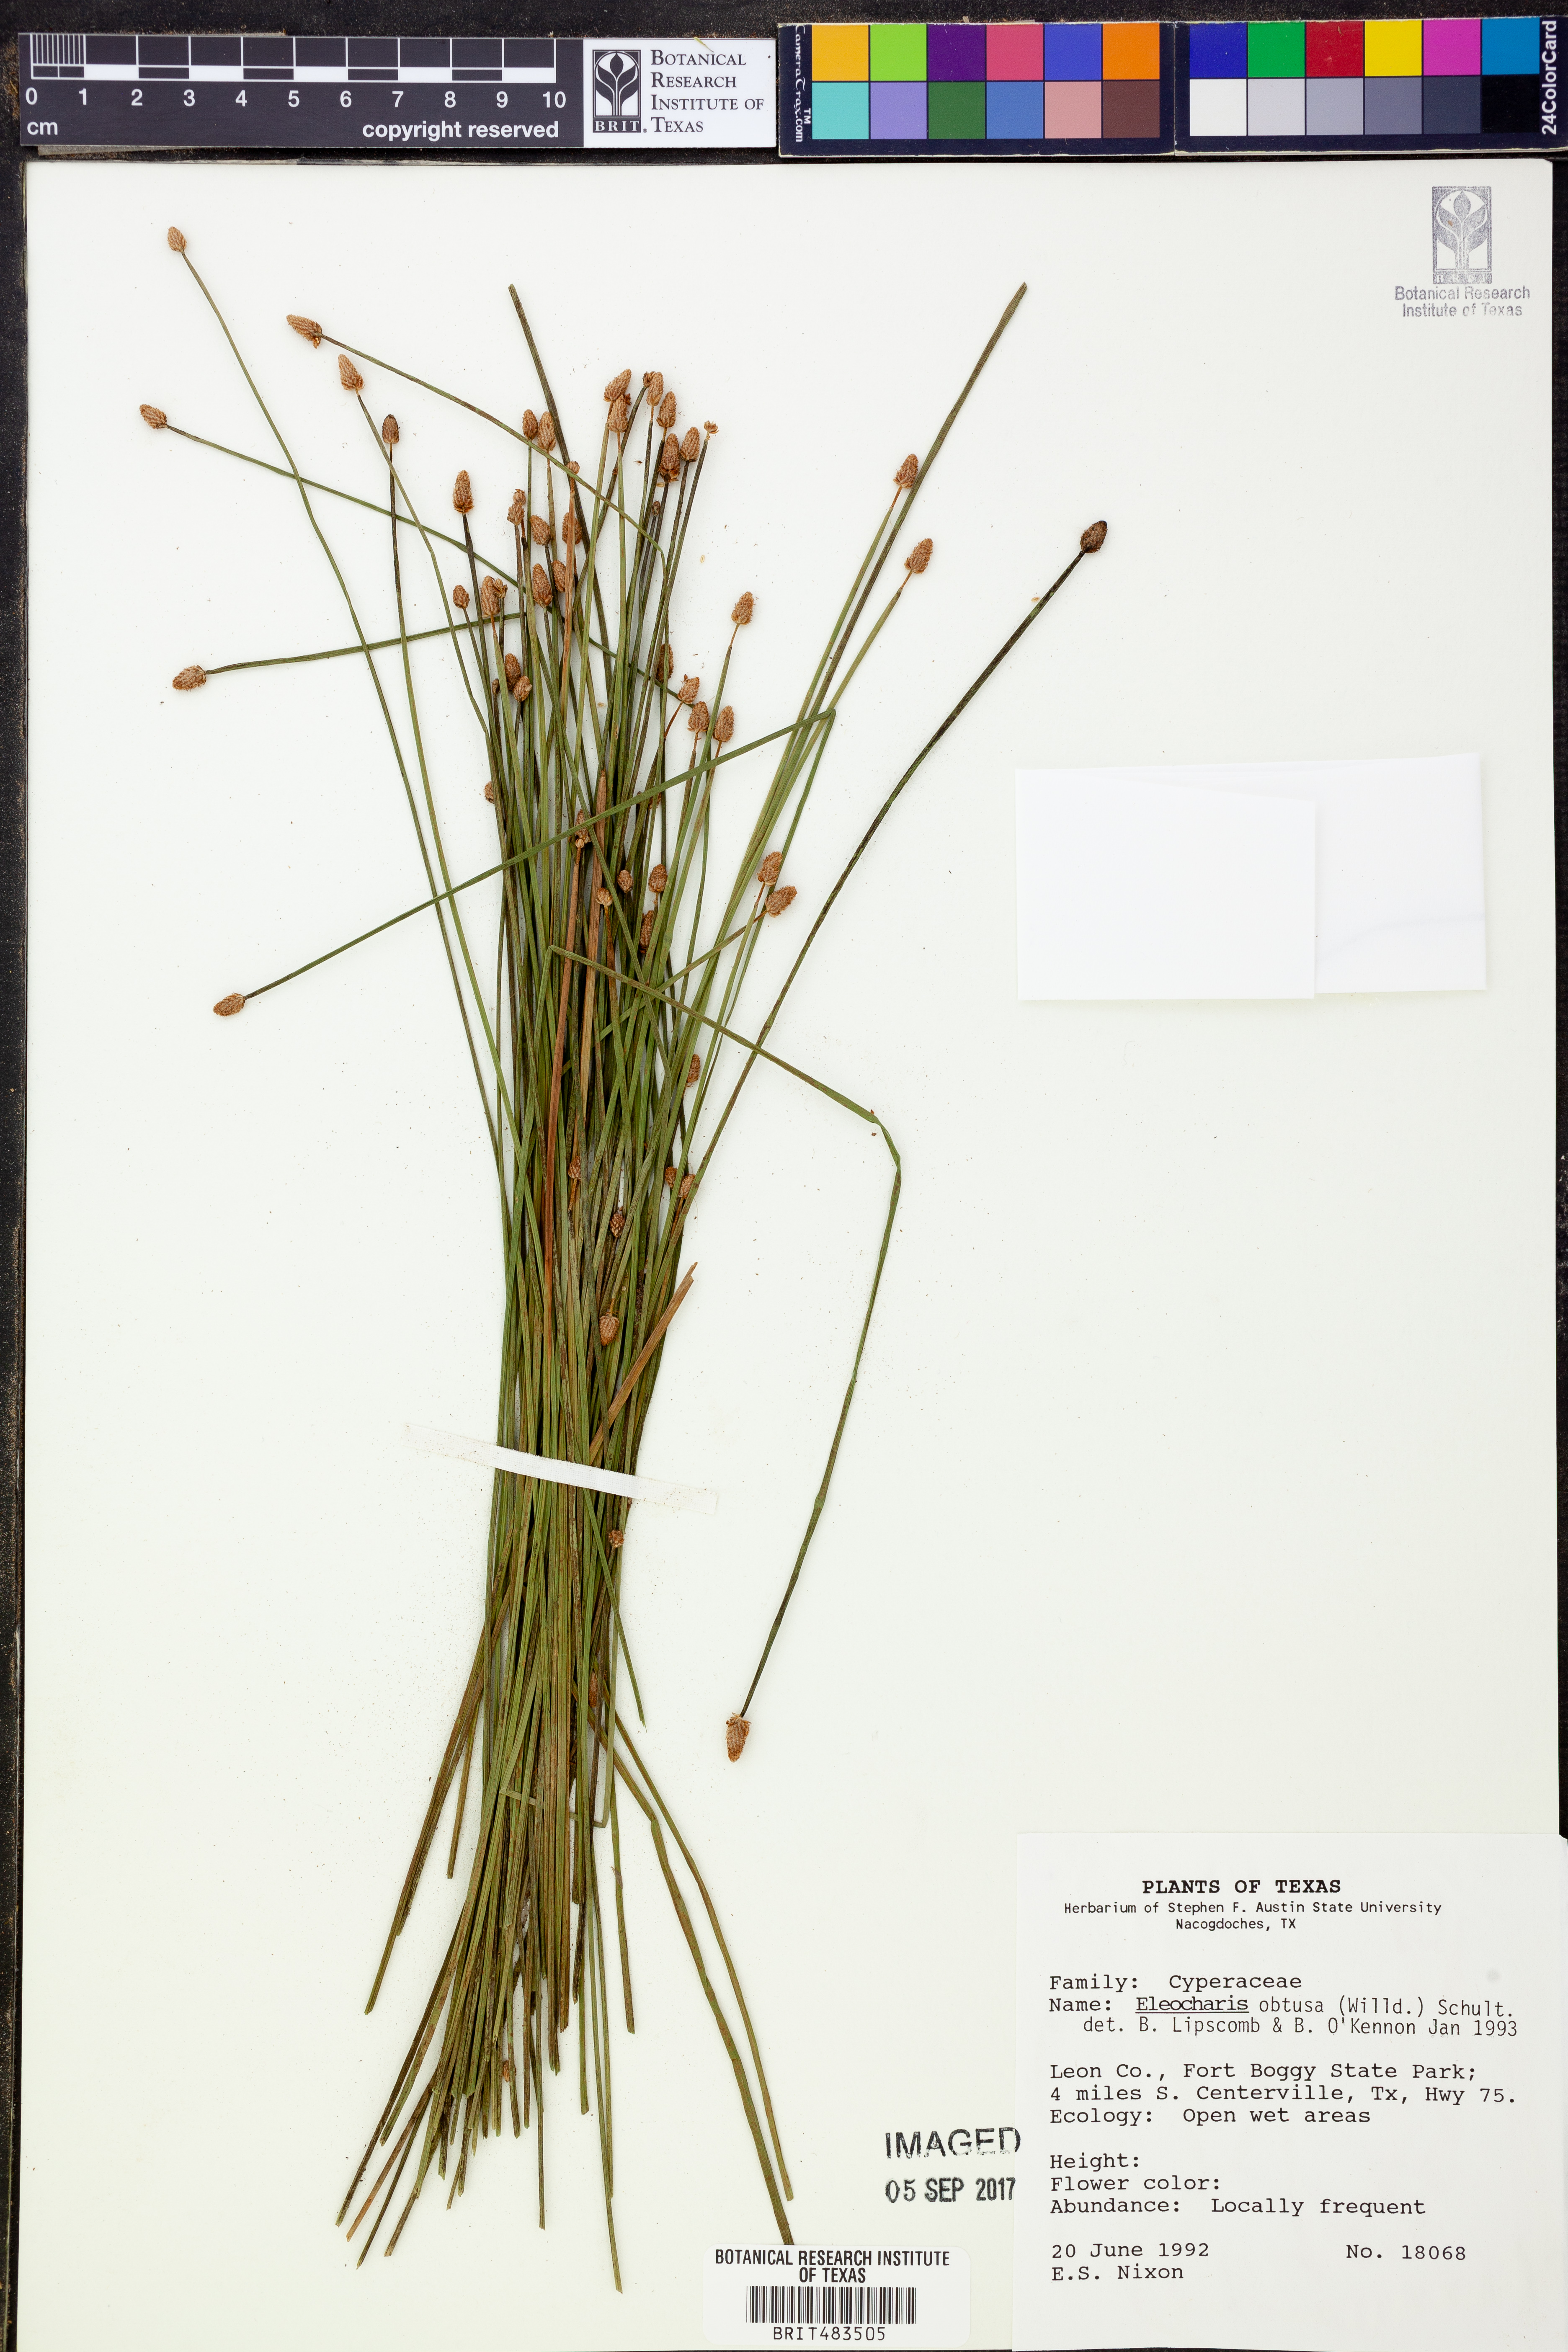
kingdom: Plantae
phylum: Tracheophyta
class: Liliopsida
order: Poales
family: Cyperaceae
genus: Eleocharis
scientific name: Eleocharis obtusa
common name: Blunt spikerush
